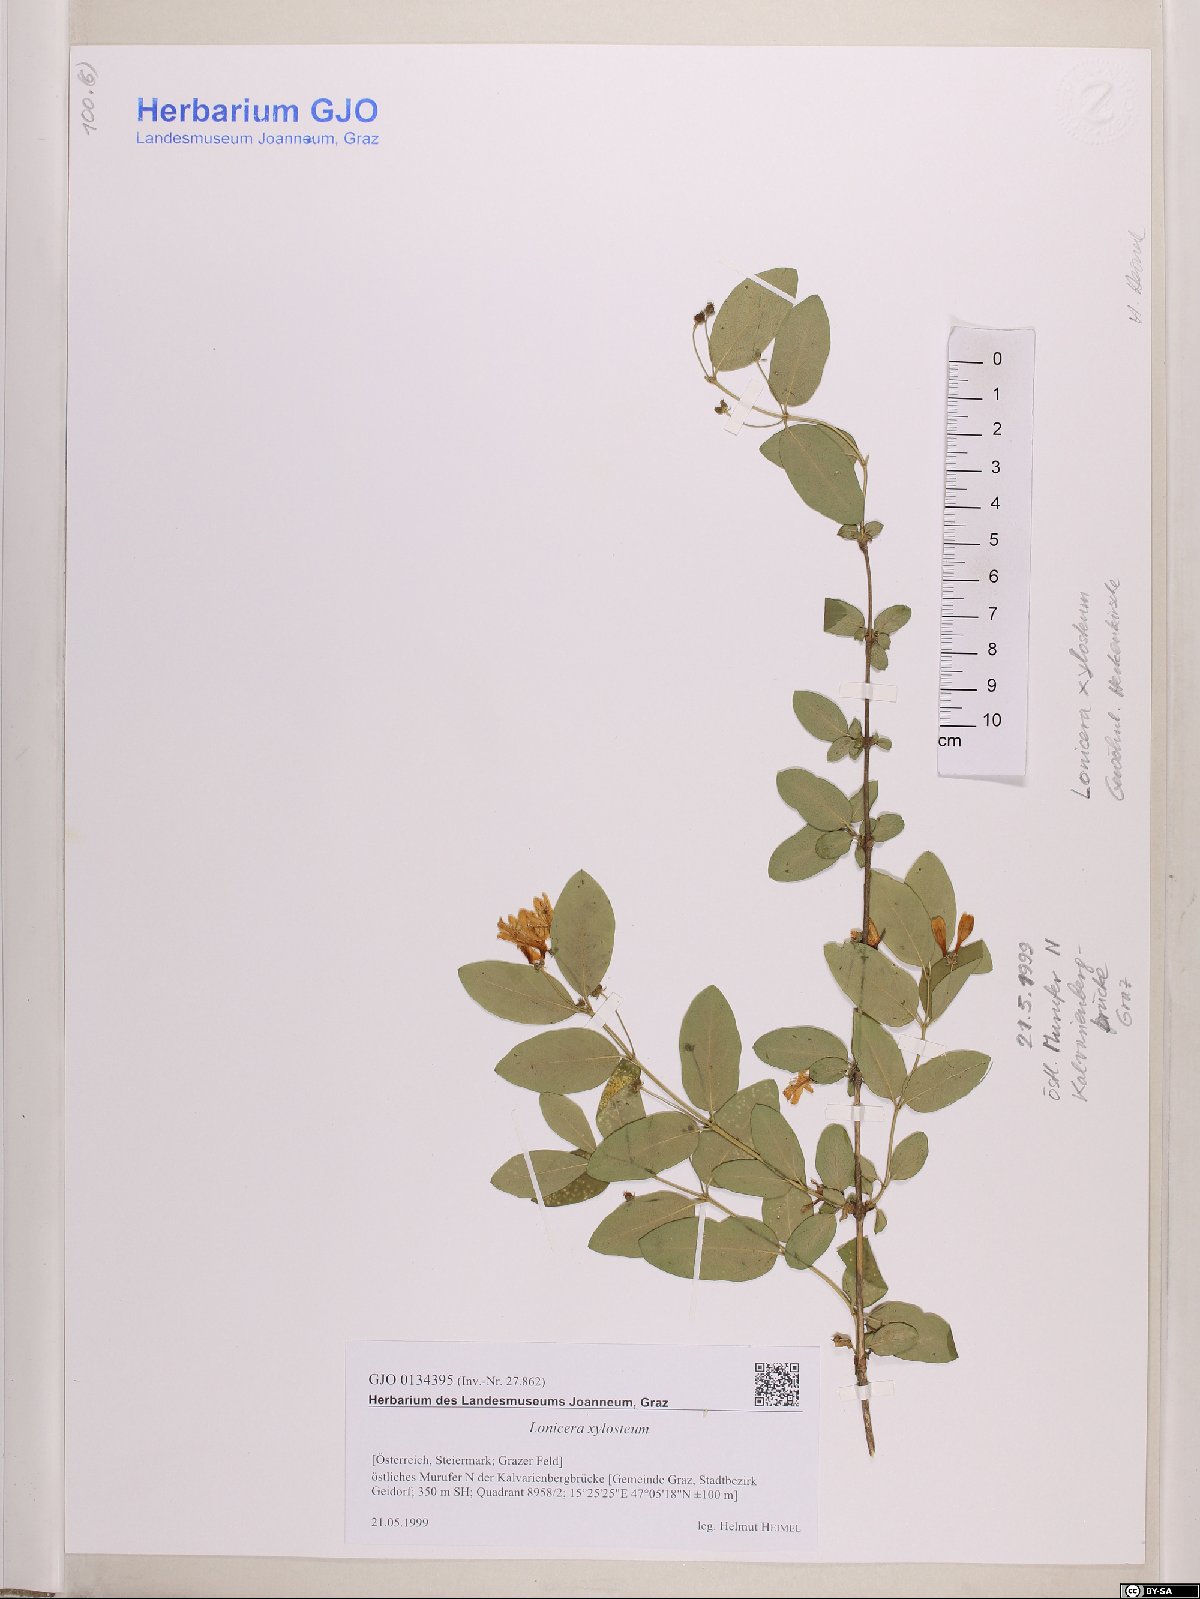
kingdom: Plantae
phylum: Tracheophyta
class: Magnoliopsida
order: Dipsacales
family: Caprifoliaceae
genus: Lonicera
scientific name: Lonicera xylosteum
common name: Fly honeysuckle
